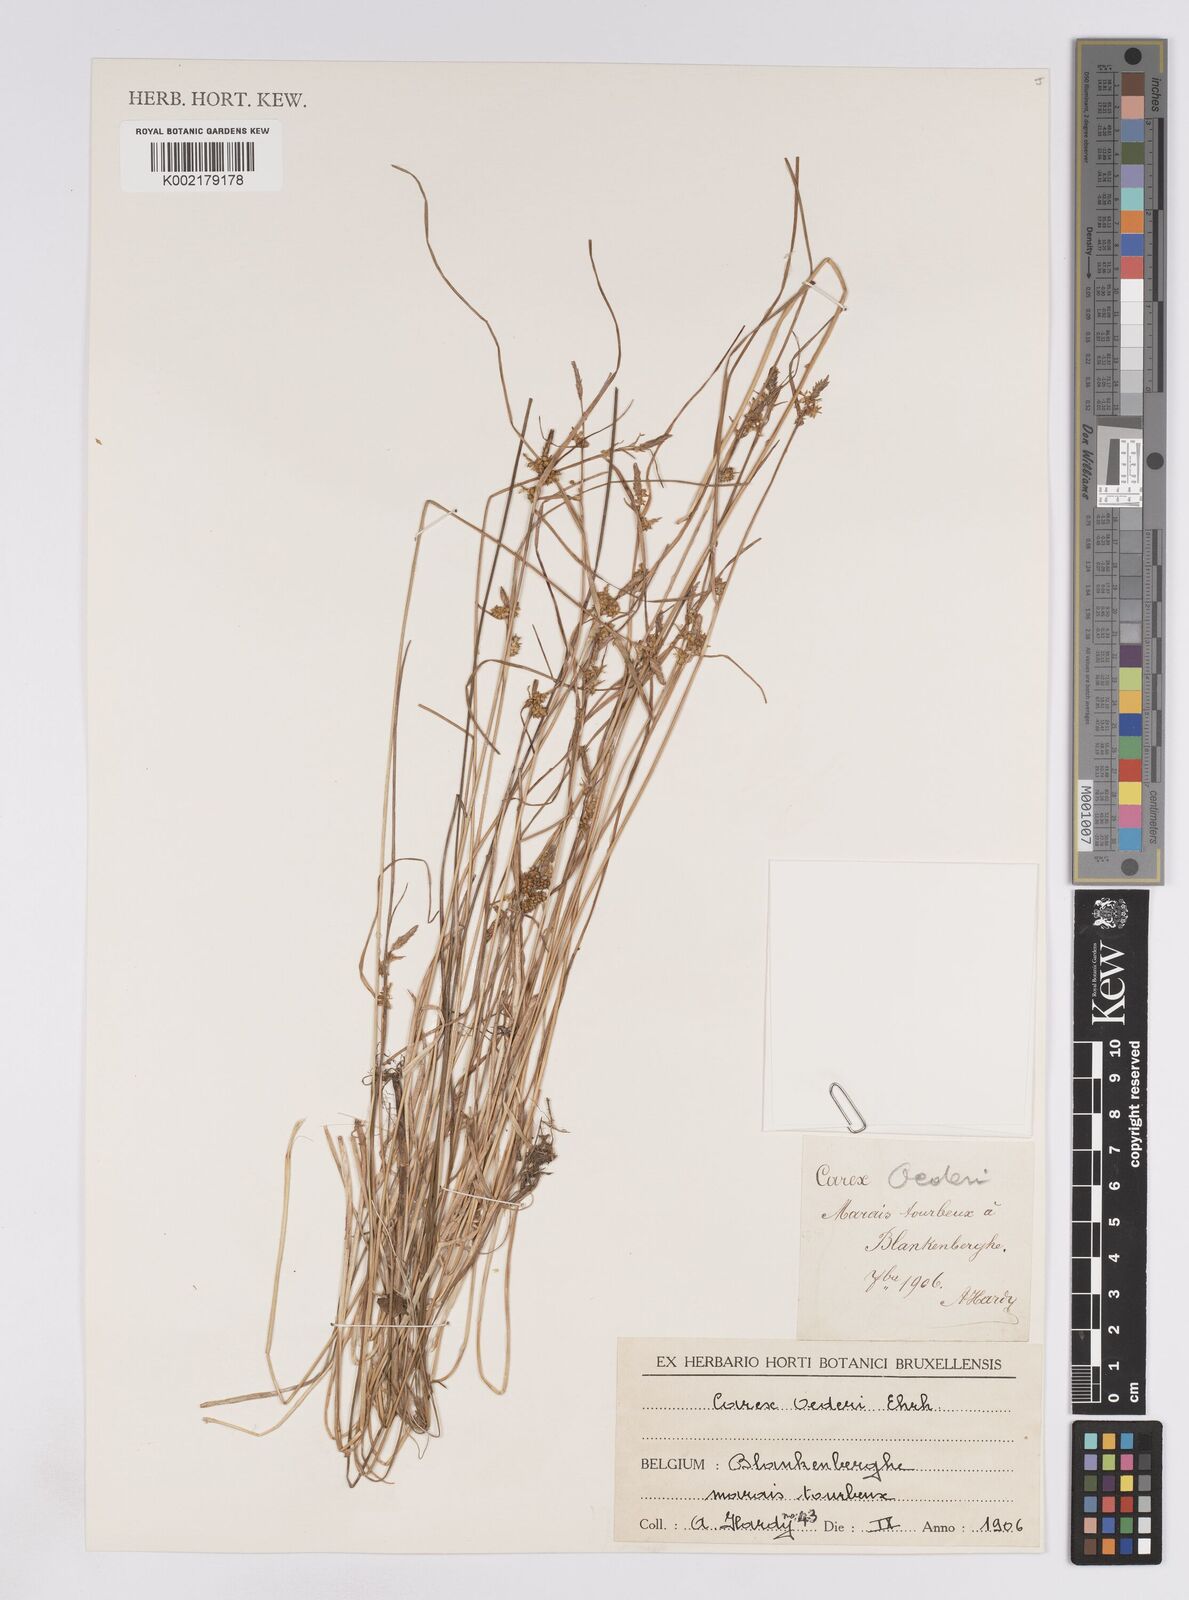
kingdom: Plantae
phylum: Tracheophyta
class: Liliopsida
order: Poales
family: Cyperaceae
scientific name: Cyperaceae
